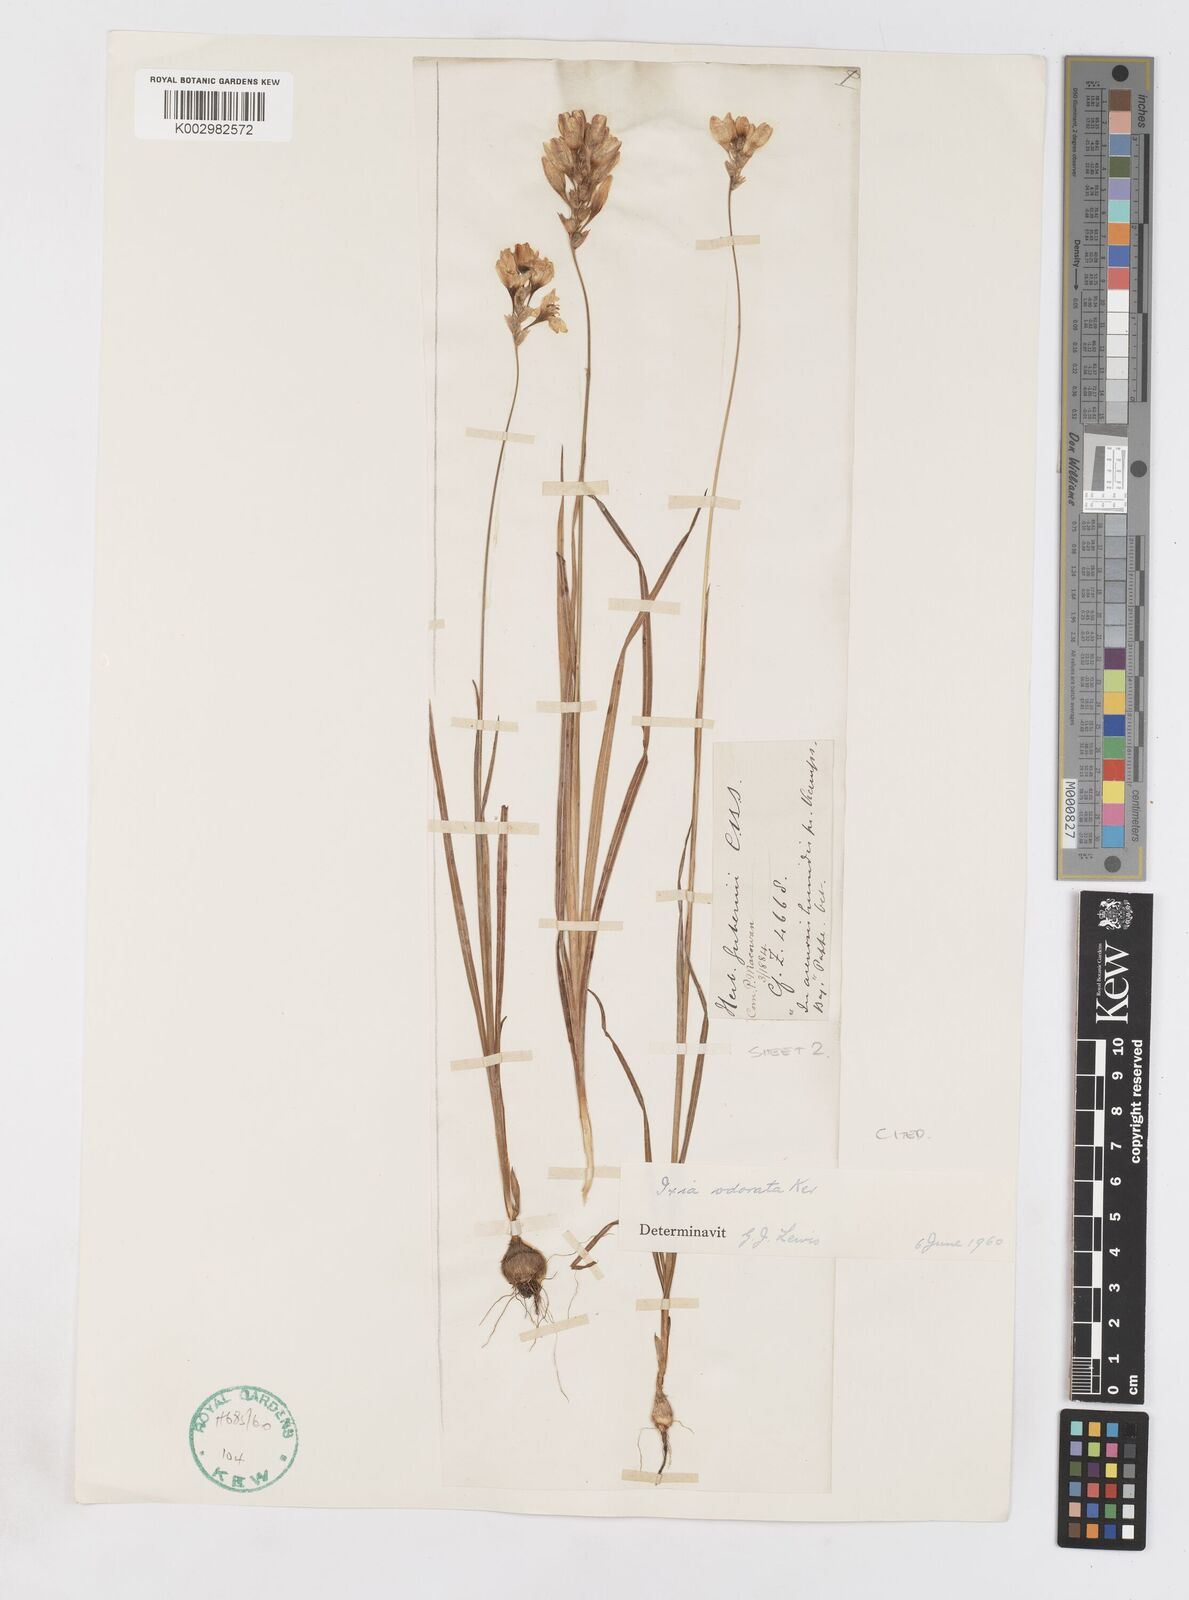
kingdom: Plantae
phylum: Tracheophyta
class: Liliopsida
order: Asparagales
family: Iridaceae
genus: Ixia
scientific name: Ixia odorata
